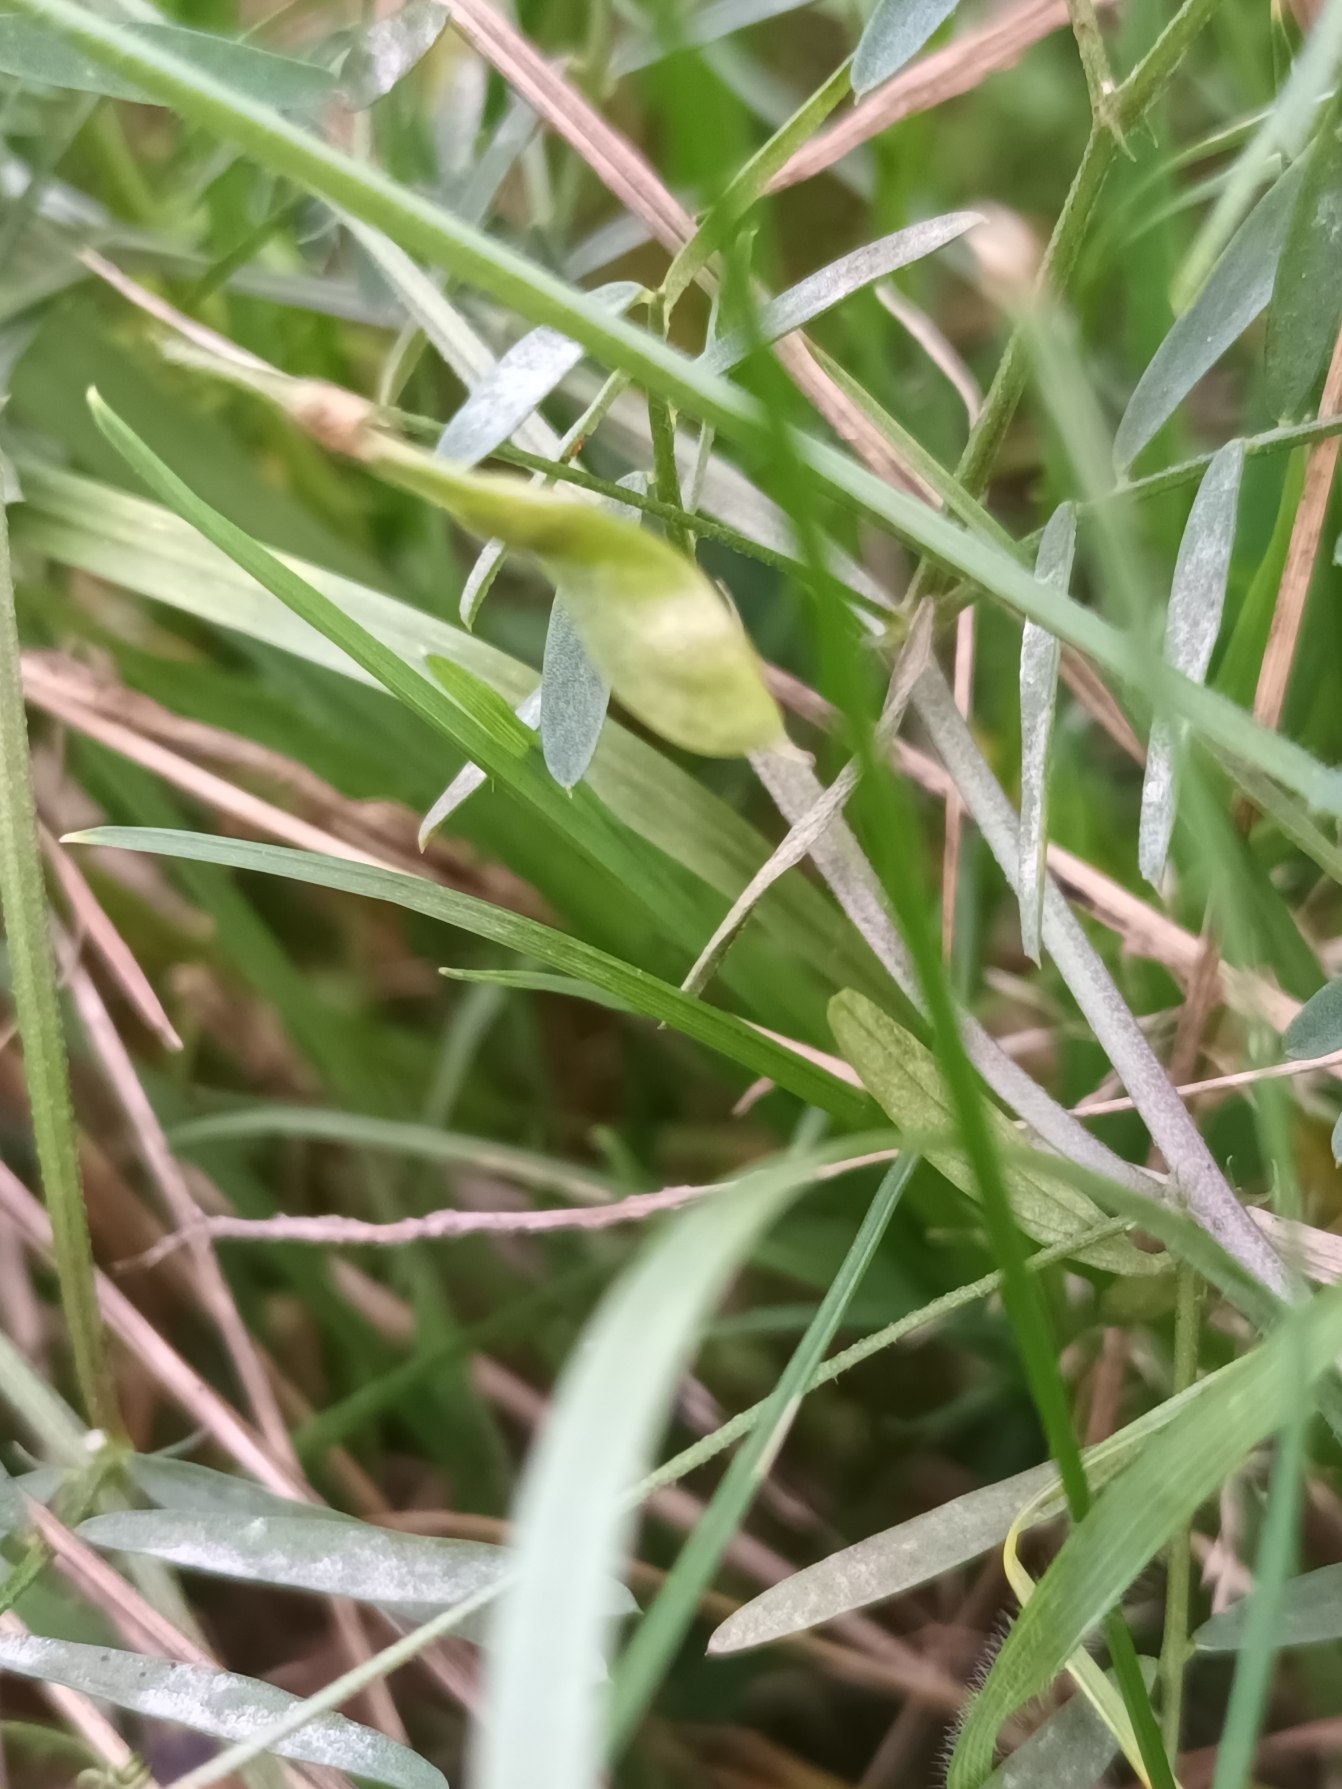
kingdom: Plantae
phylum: Tracheophyta
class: Magnoliopsida
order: Fabales
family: Fabaceae
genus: Vicia
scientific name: Vicia tetrasperma
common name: Tadder-vikke
